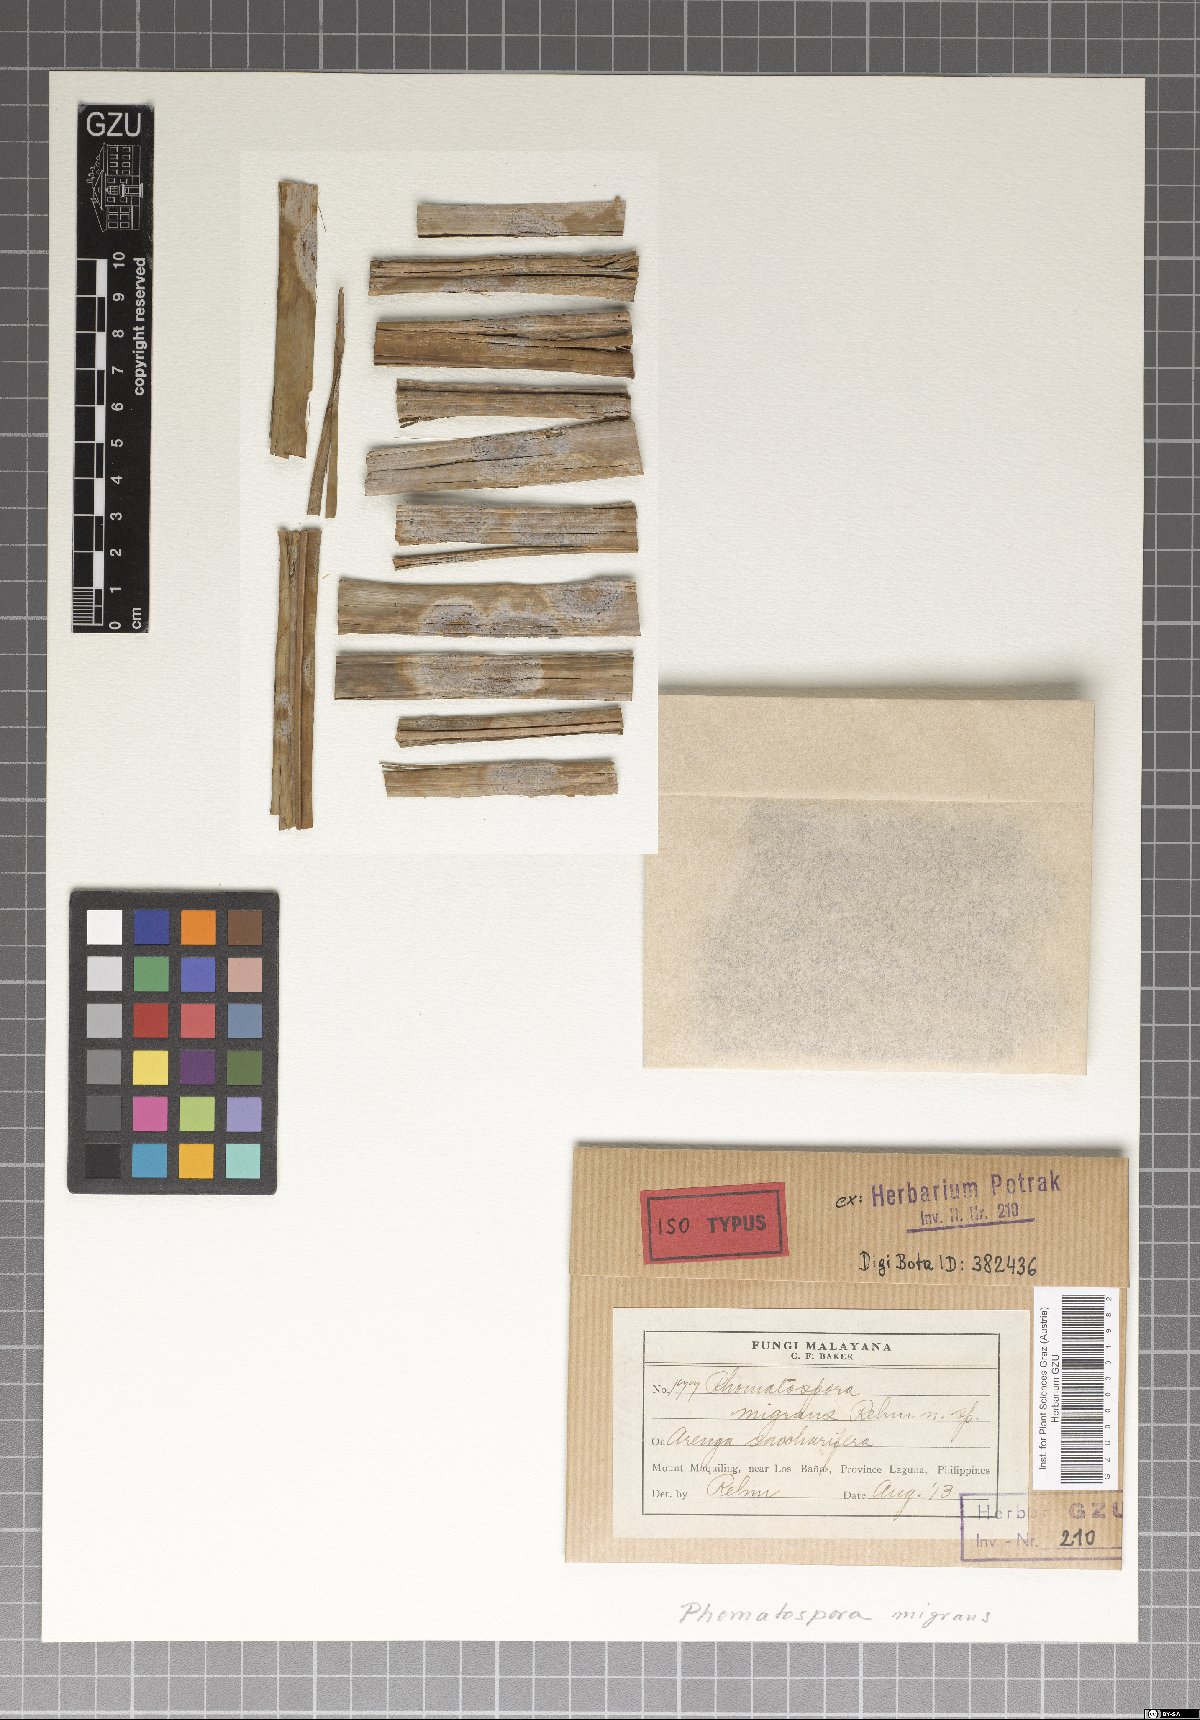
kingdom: Fungi
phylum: Ascomycota
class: Dothideomycetes
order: Botryosphaeriales
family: Phyllostictaceae
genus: Guignardia
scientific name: Guignardia migrans
